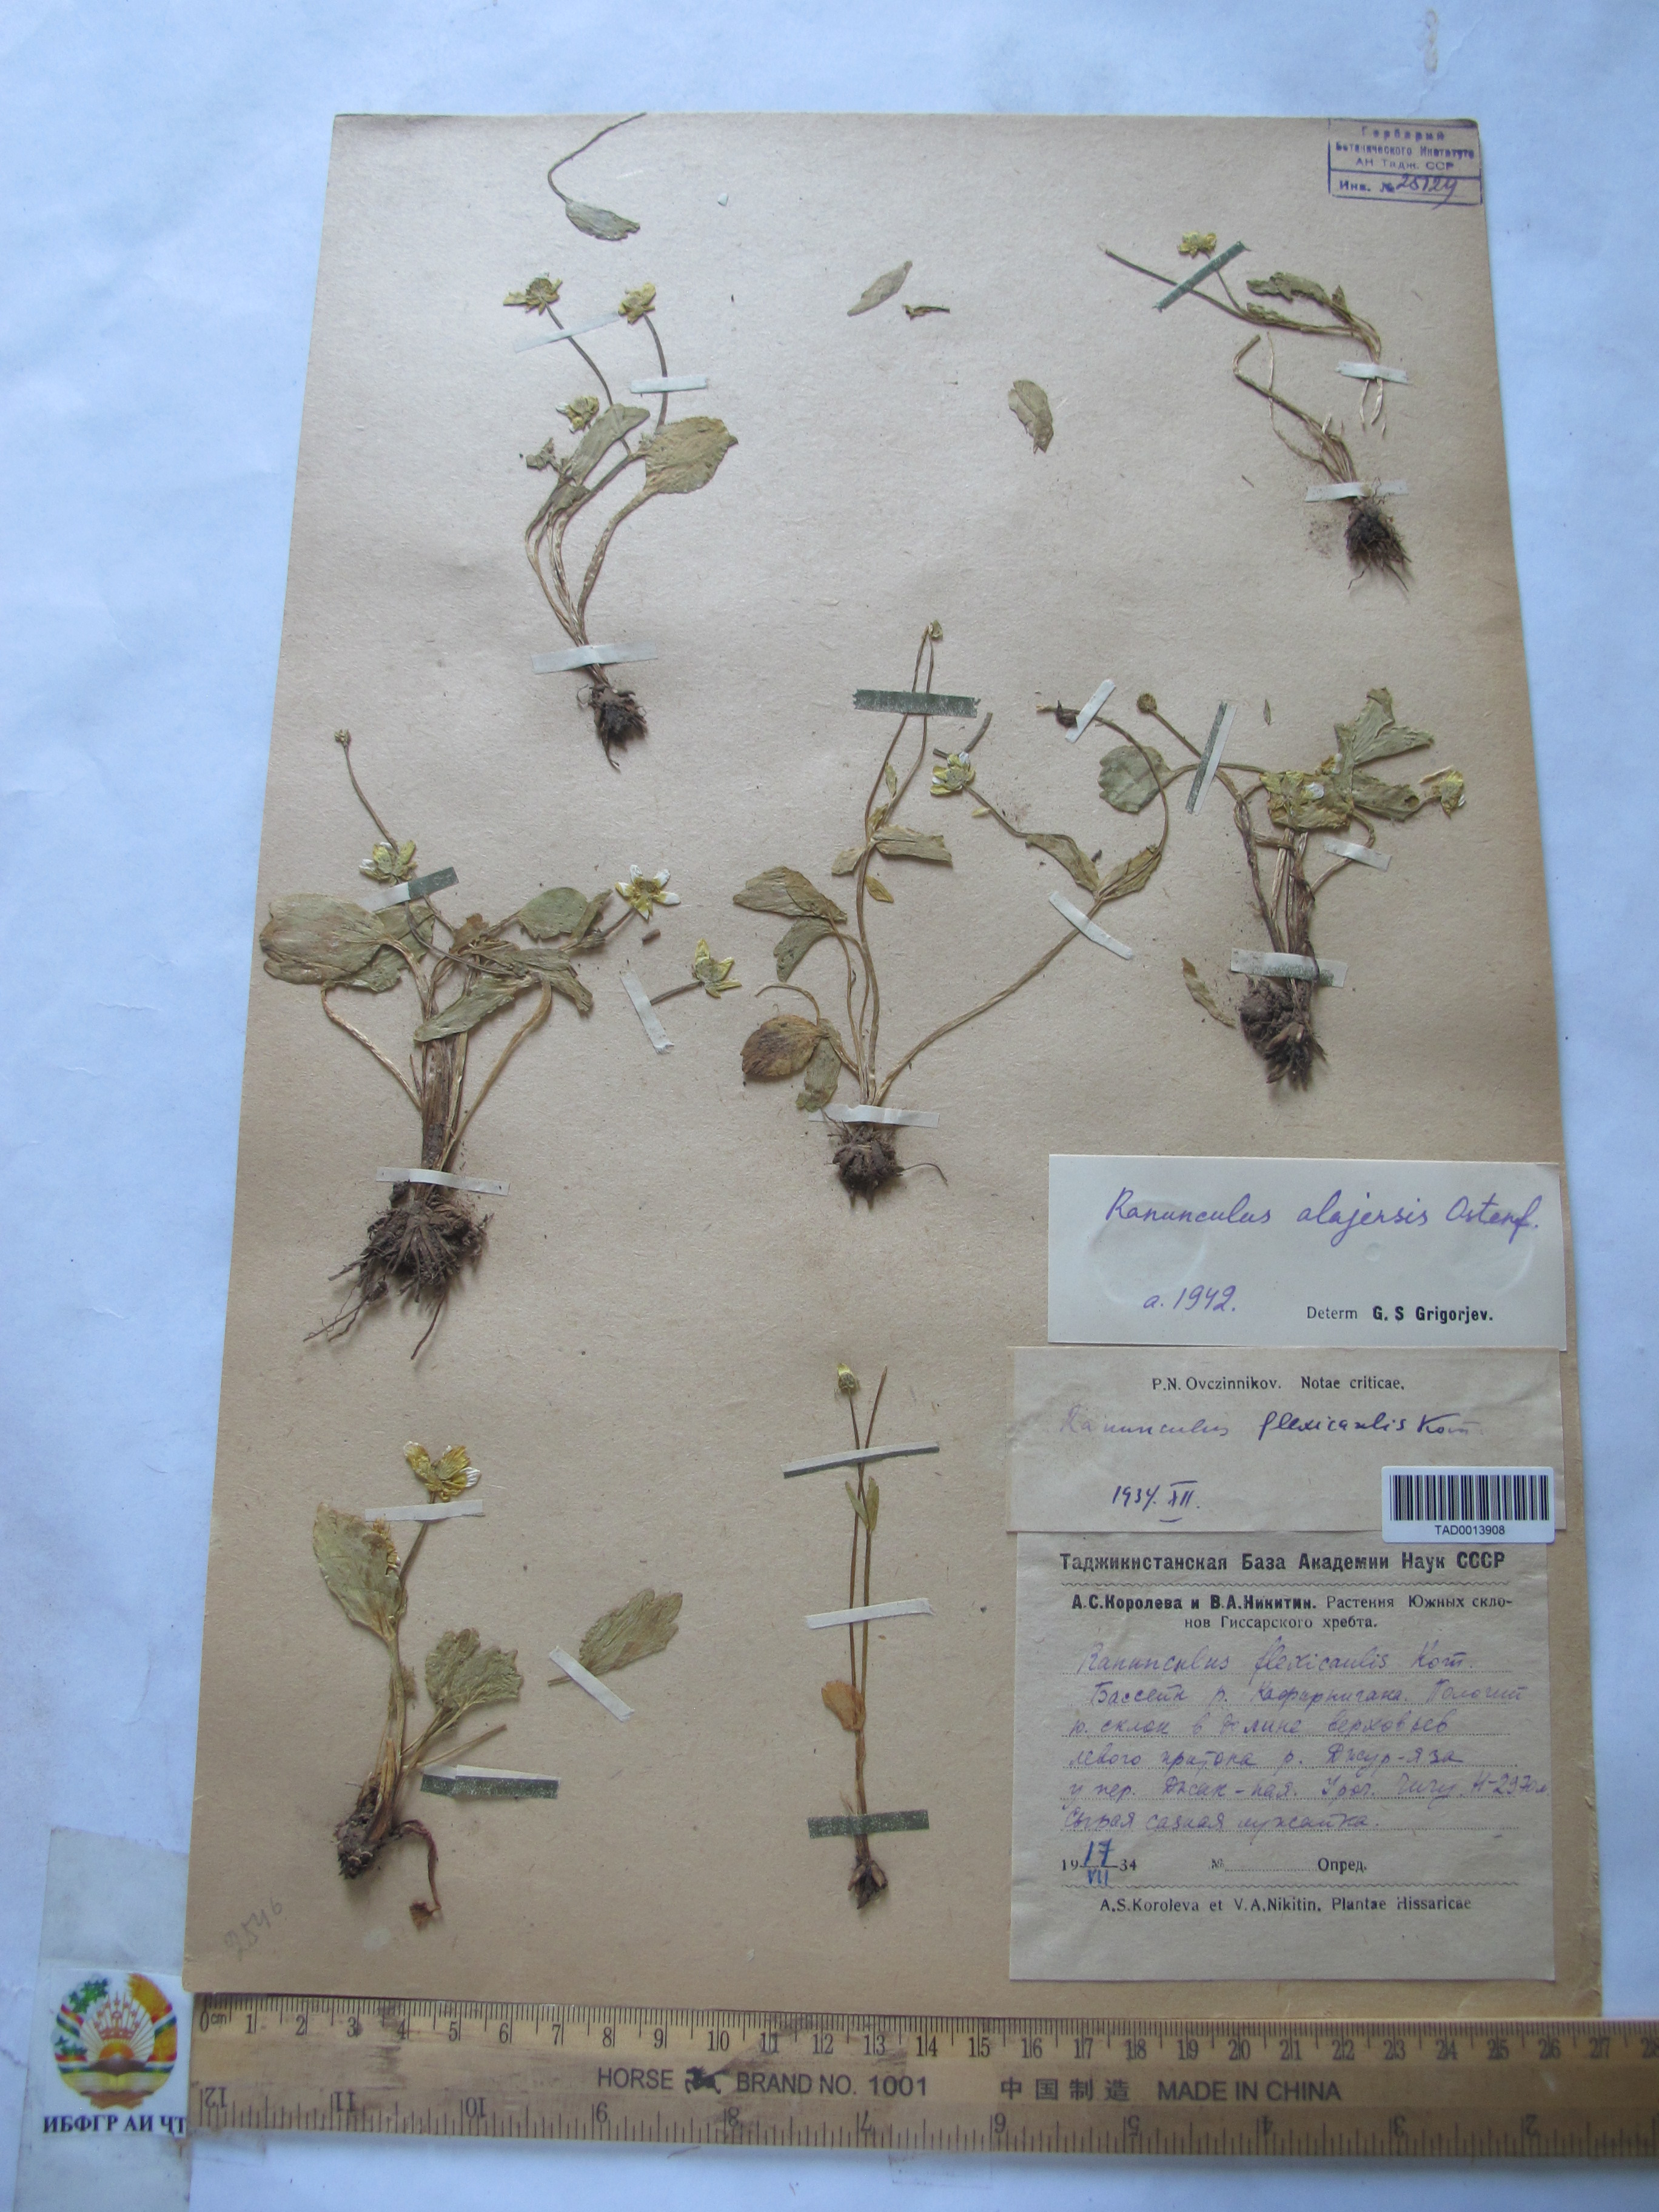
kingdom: Plantae
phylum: Tracheophyta
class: Magnoliopsida
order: Ranunculales
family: Ranunculaceae
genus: Ranunculus
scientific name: Ranunculus alaiensis
